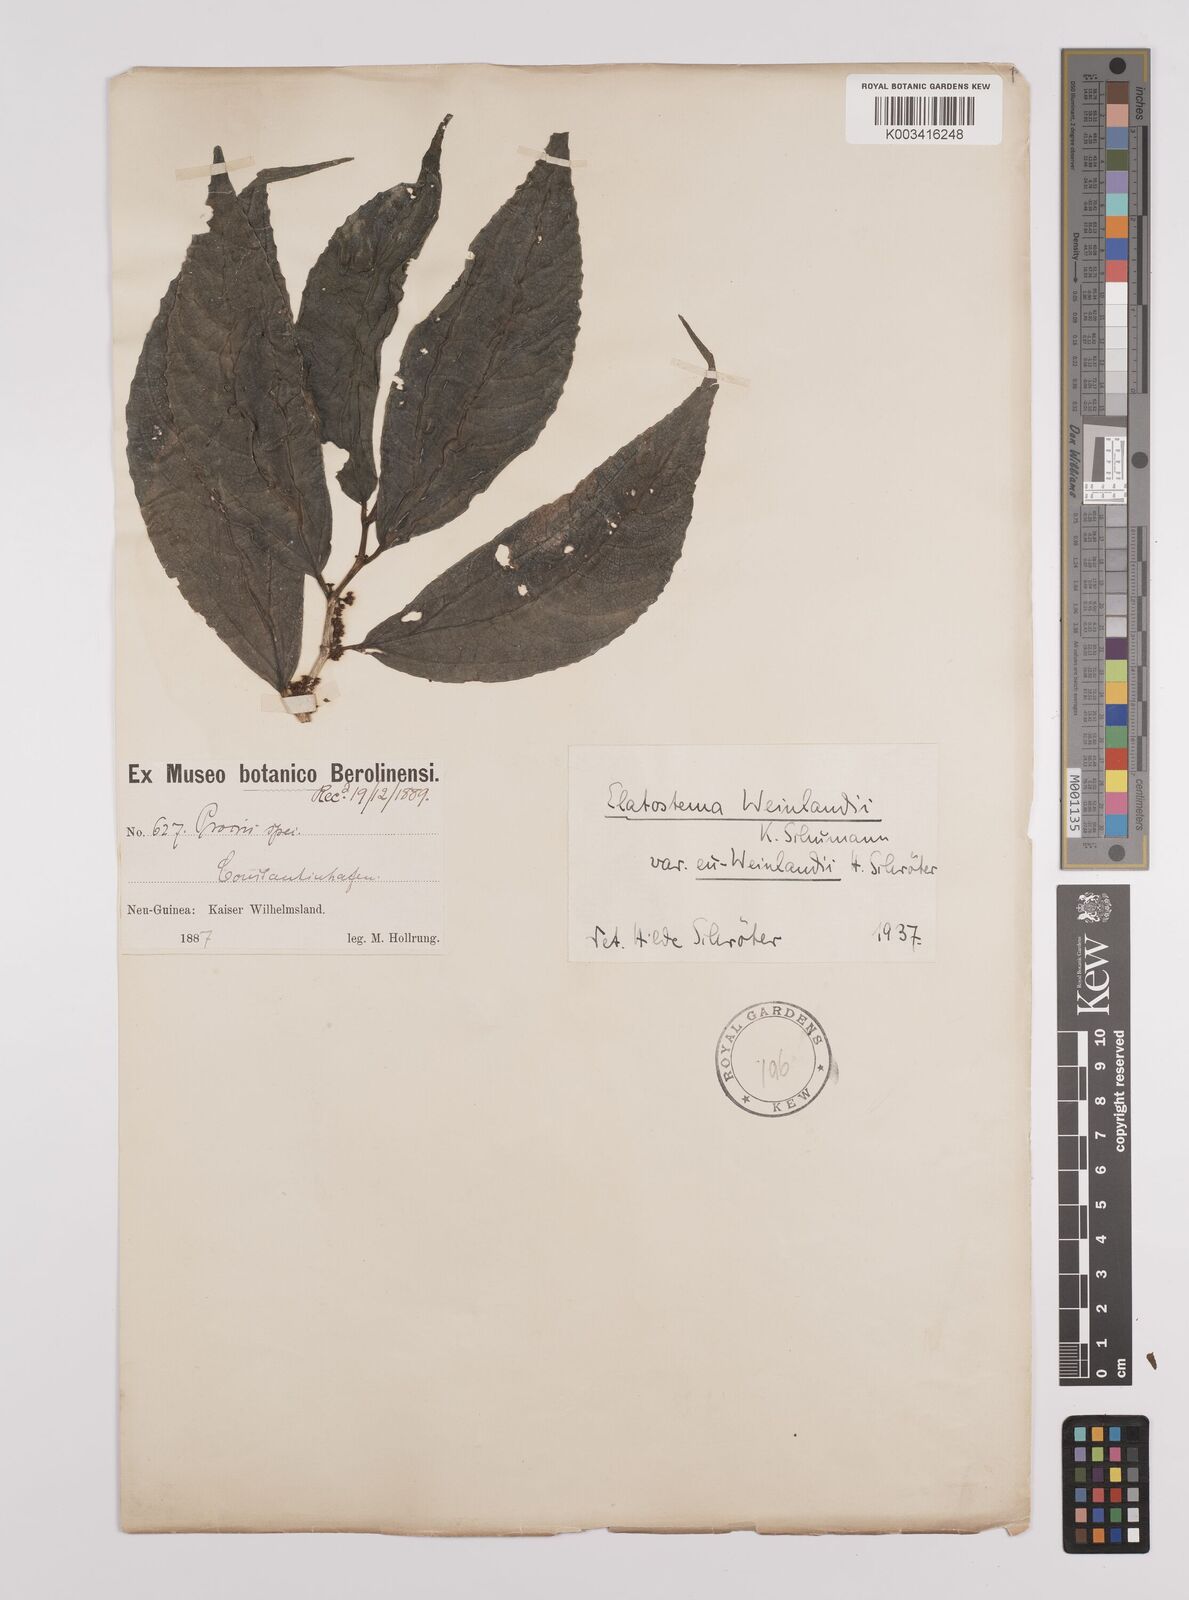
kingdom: Plantae
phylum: Tracheophyta
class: Magnoliopsida
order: Rosales
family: Urticaceae
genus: Elatostema
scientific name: Elatostema weinlandii
